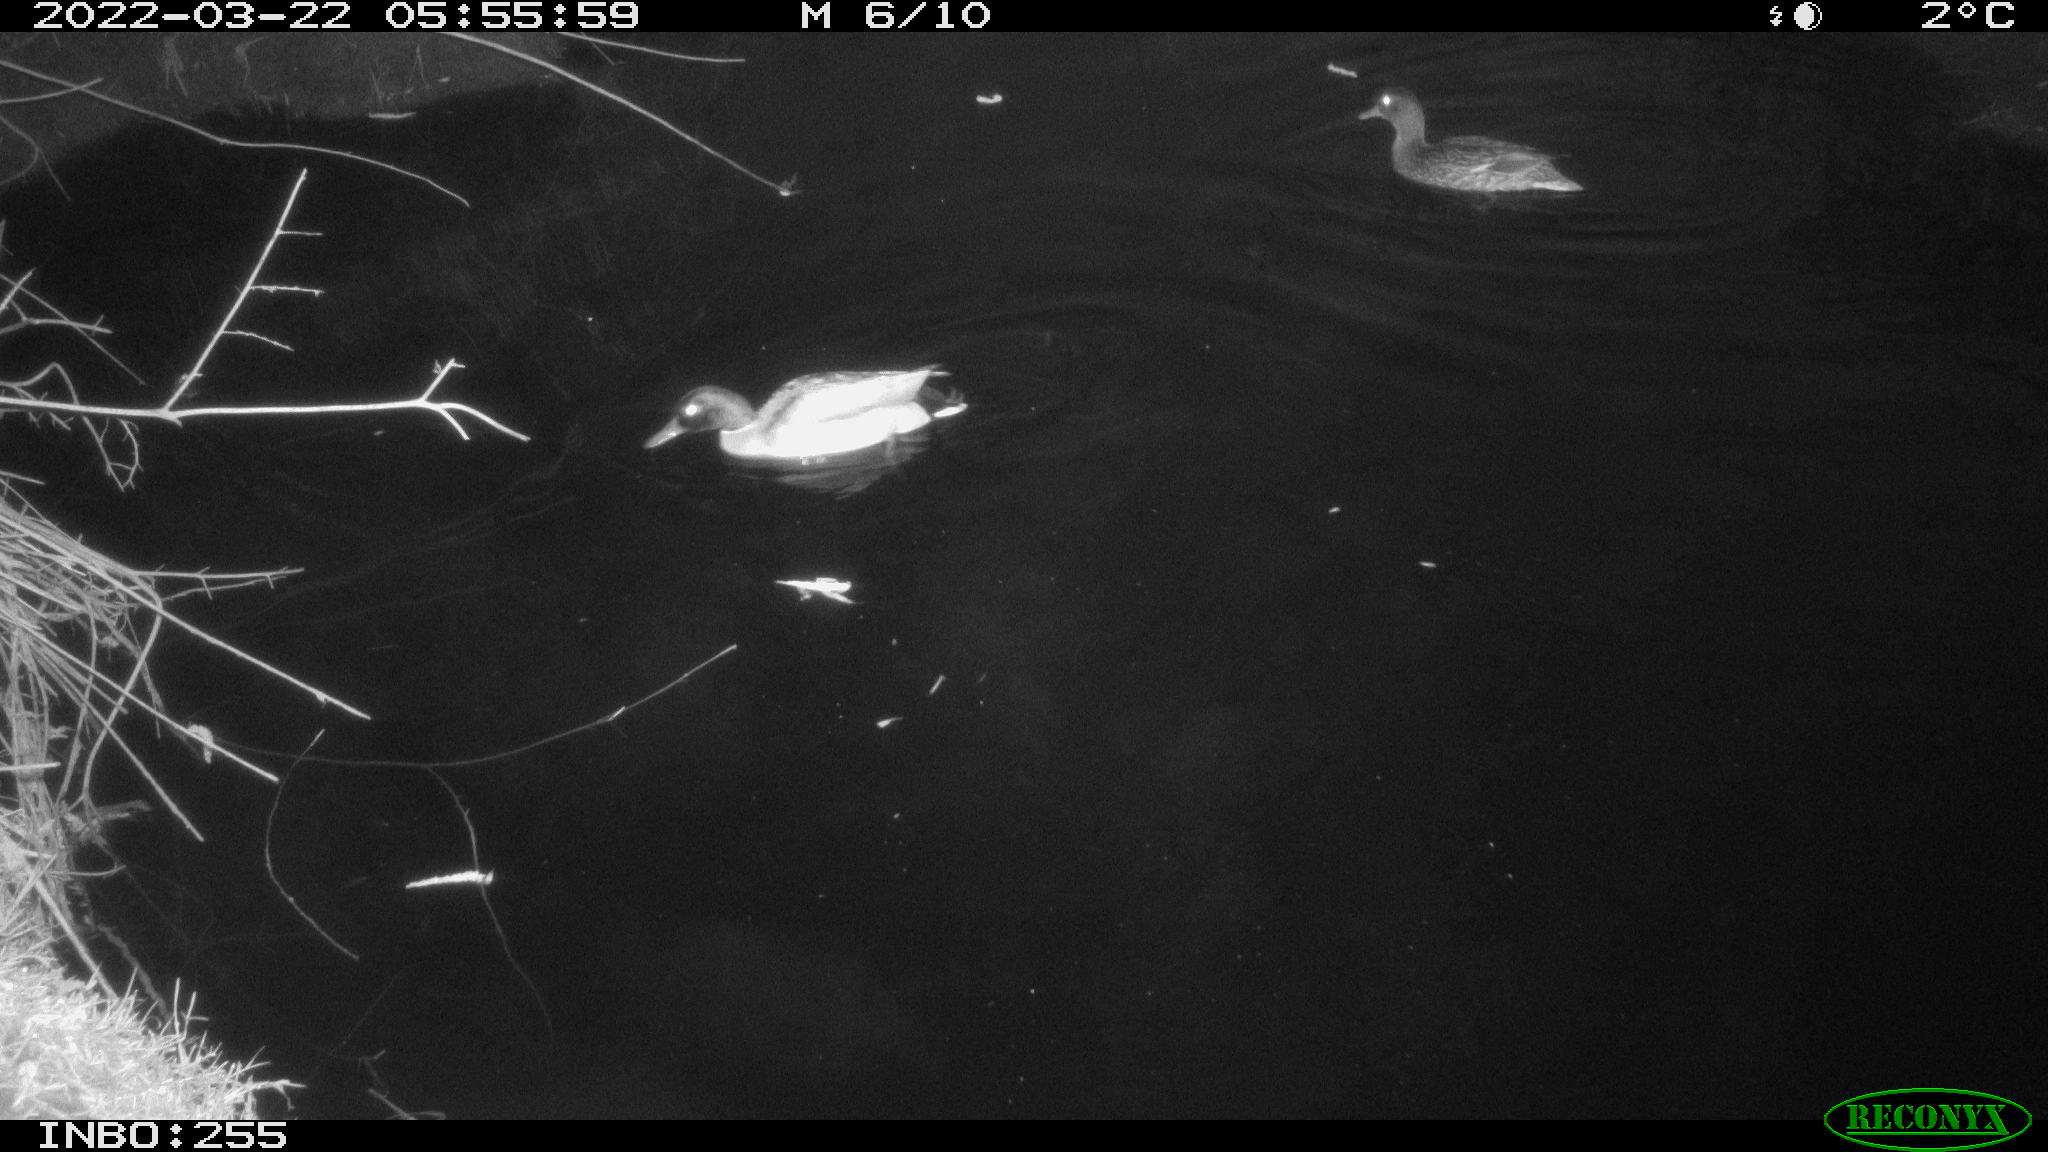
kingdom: Animalia
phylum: Chordata
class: Aves
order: Anseriformes
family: Anatidae
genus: Anas
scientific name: Anas platyrhynchos
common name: Mallard
